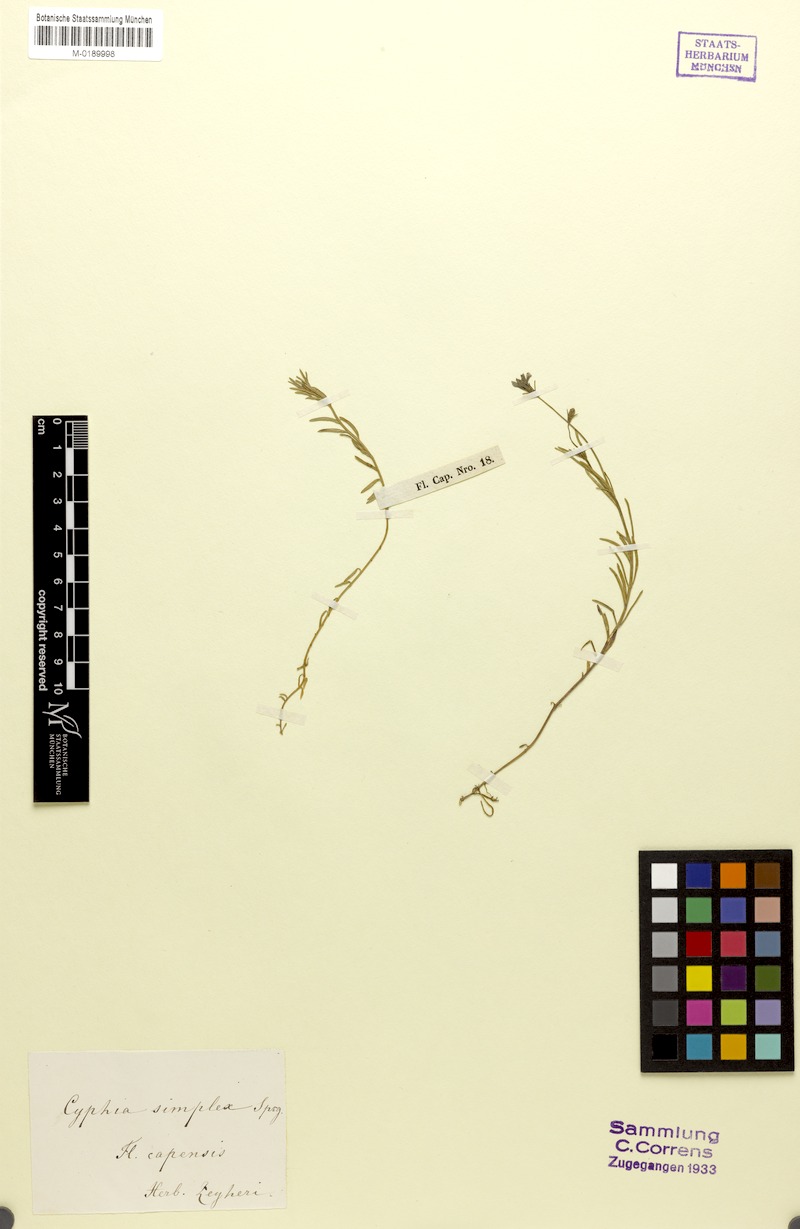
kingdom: Plantae
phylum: Tracheophyta
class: Magnoliopsida
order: Asterales
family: Campanulaceae
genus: Monopsis
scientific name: Monopsis unidentata
